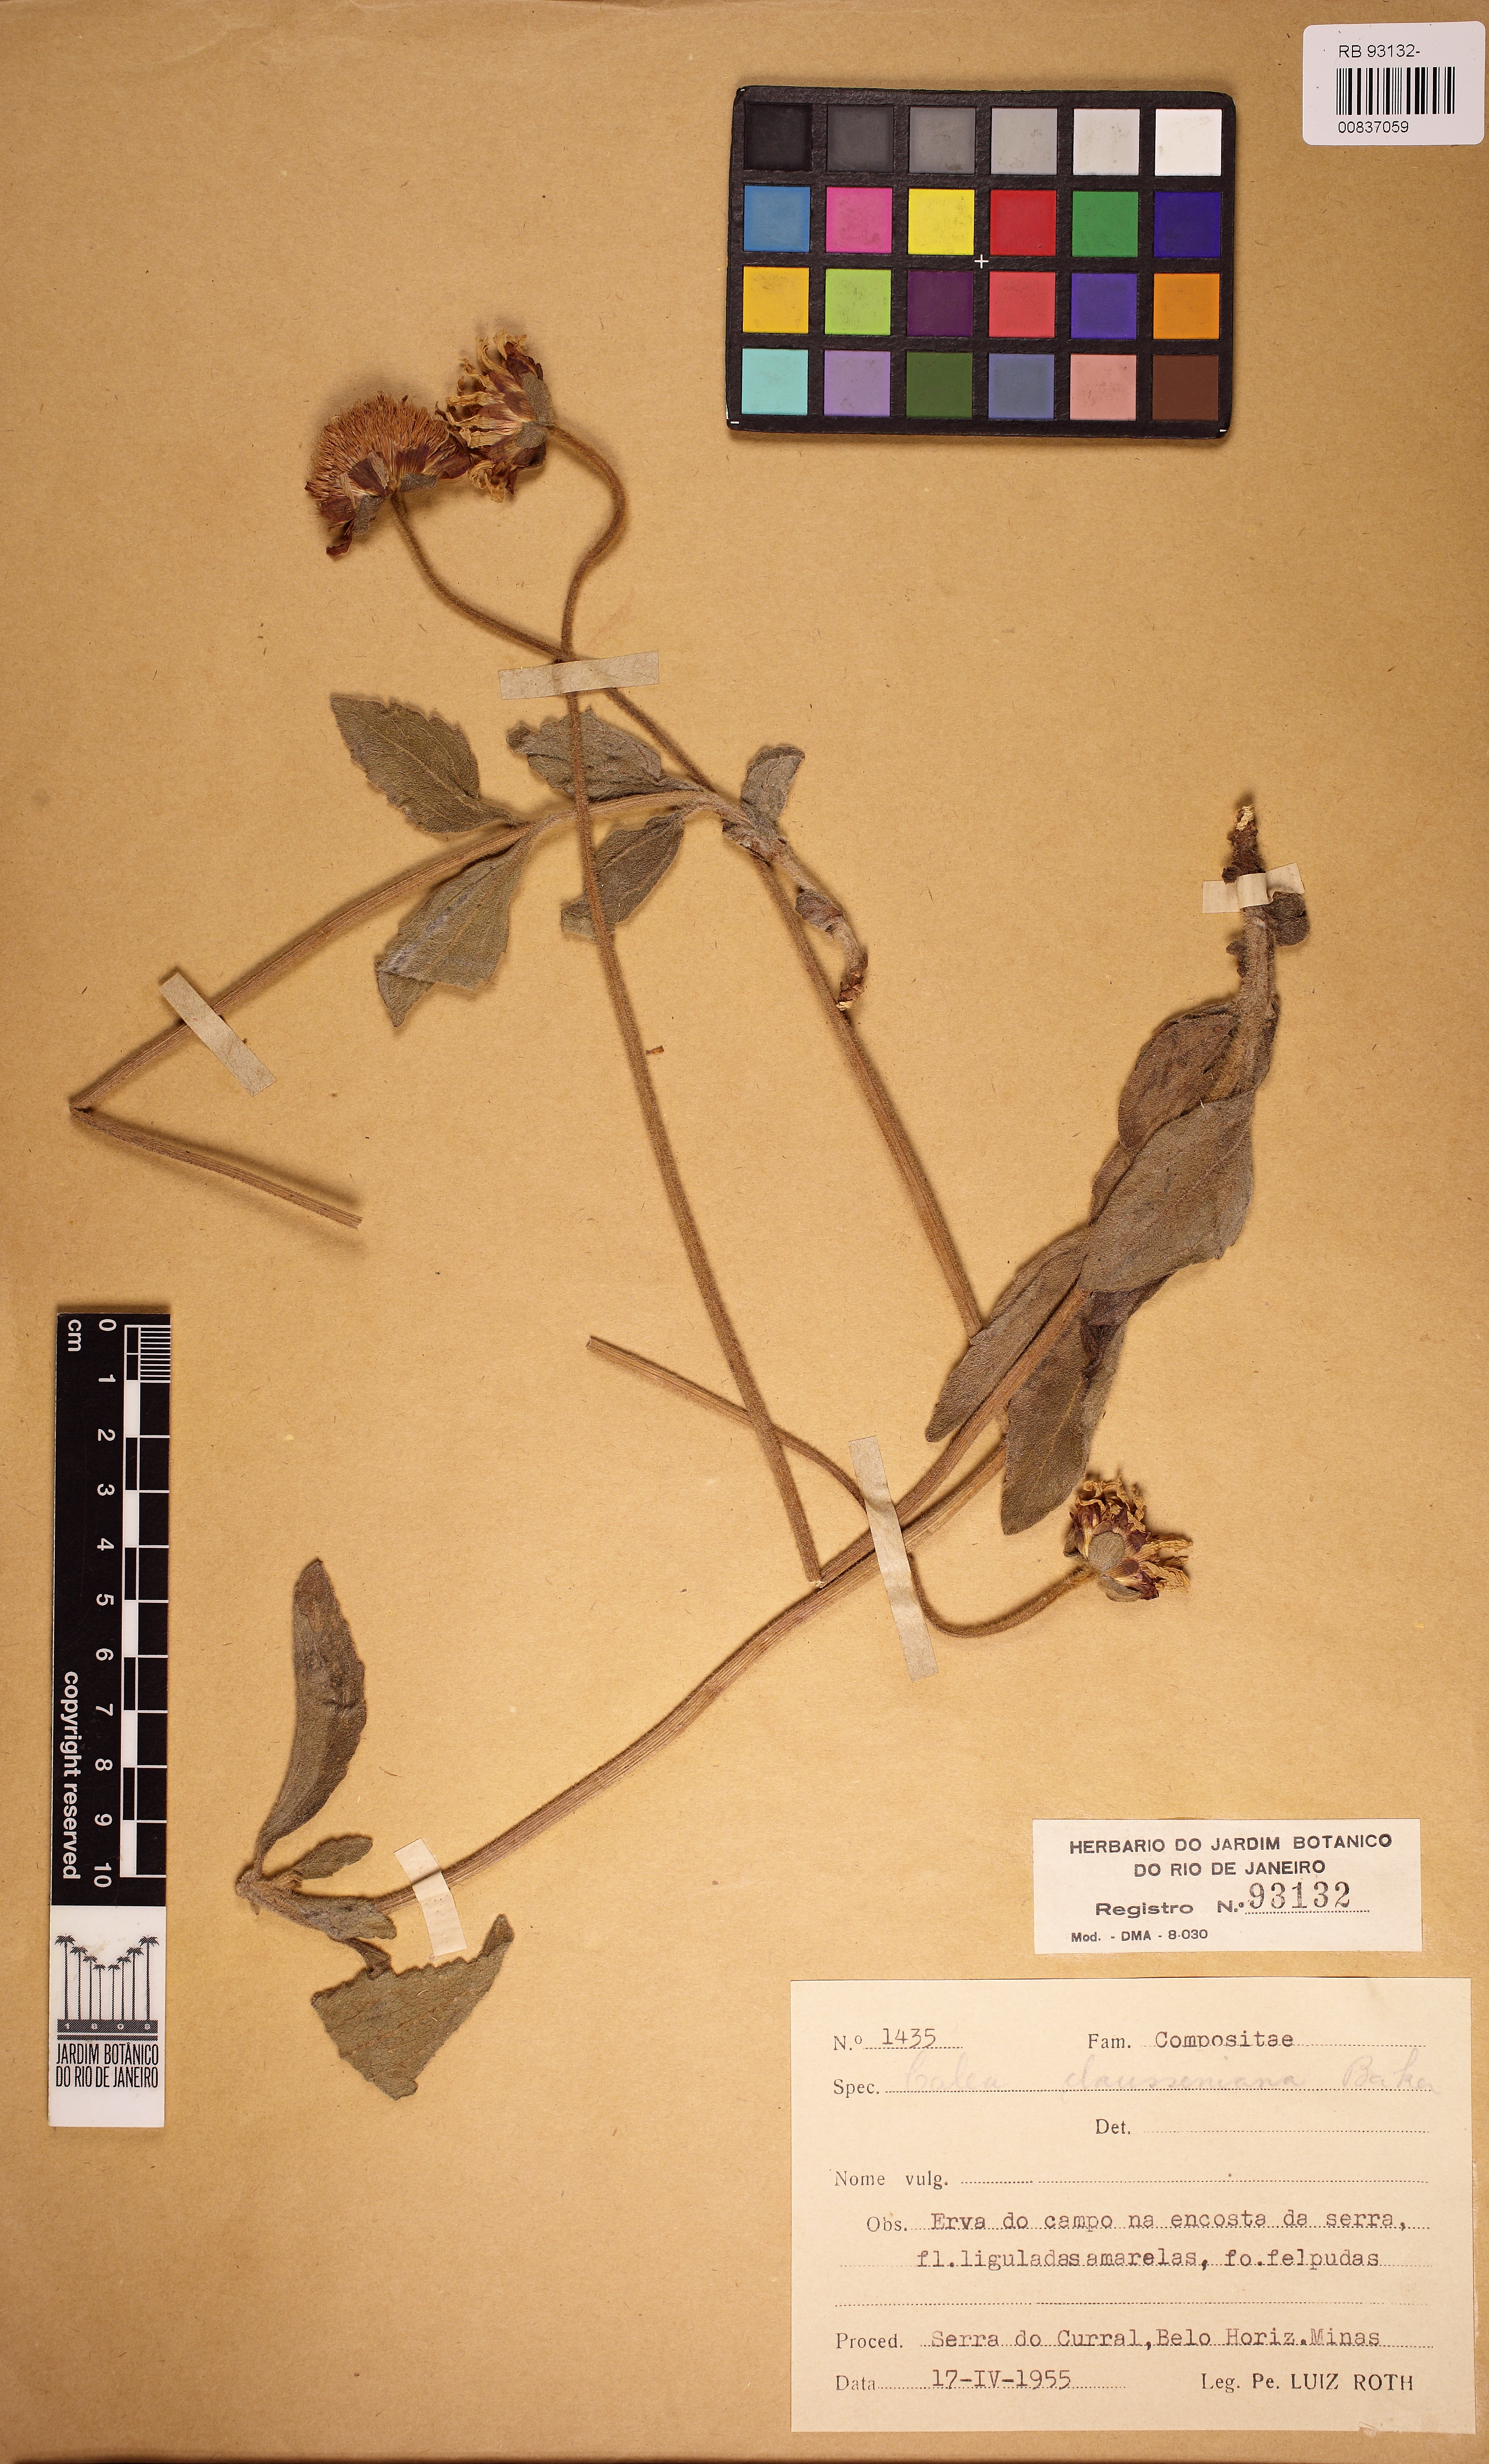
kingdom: Plantae
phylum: Tracheophyta
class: Magnoliopsida
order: Asterales
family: Asteraceae
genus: Calea
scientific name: Calea clausseniana
